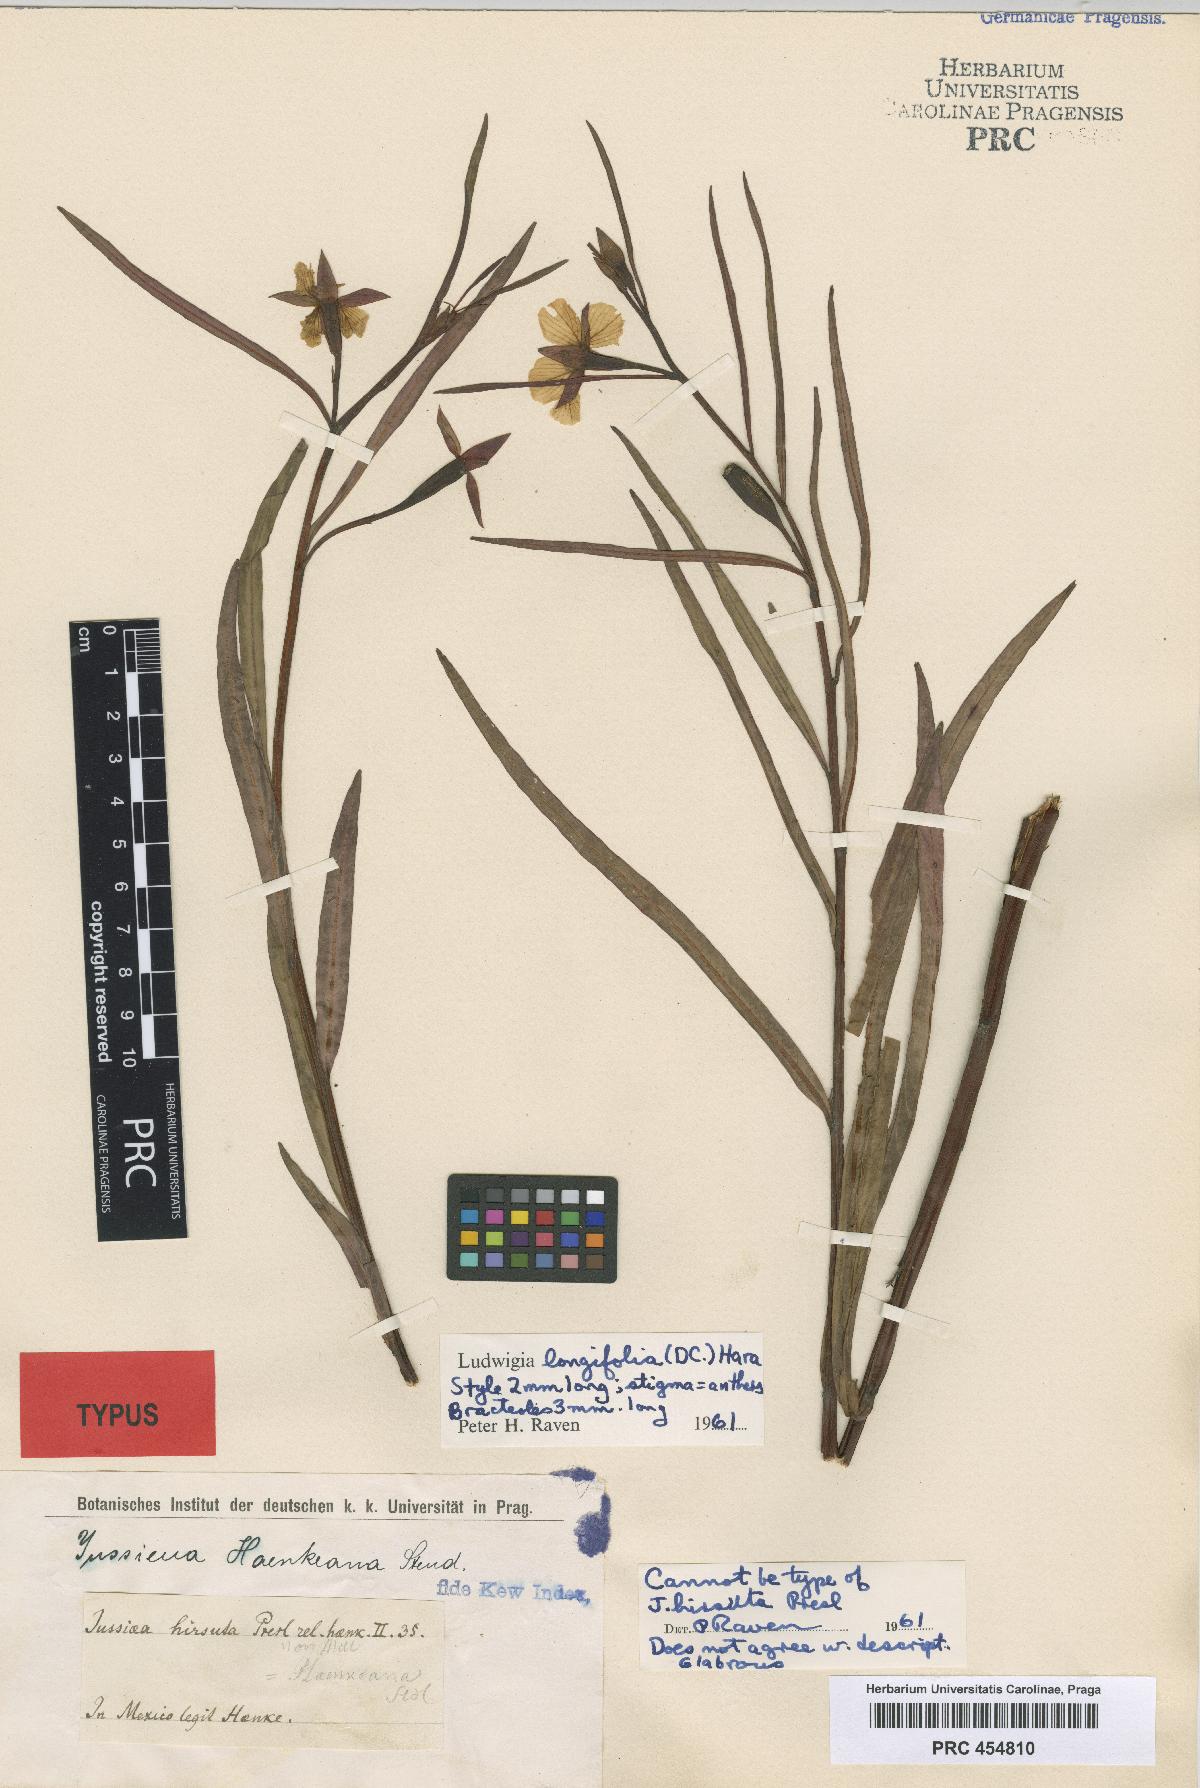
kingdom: Plantae
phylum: Tracheophyta
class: Magnoliopsida
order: Myrtales
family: Onagraceae
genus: Ludwigia
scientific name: Ludwigia octovalvis
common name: Water-primrose
